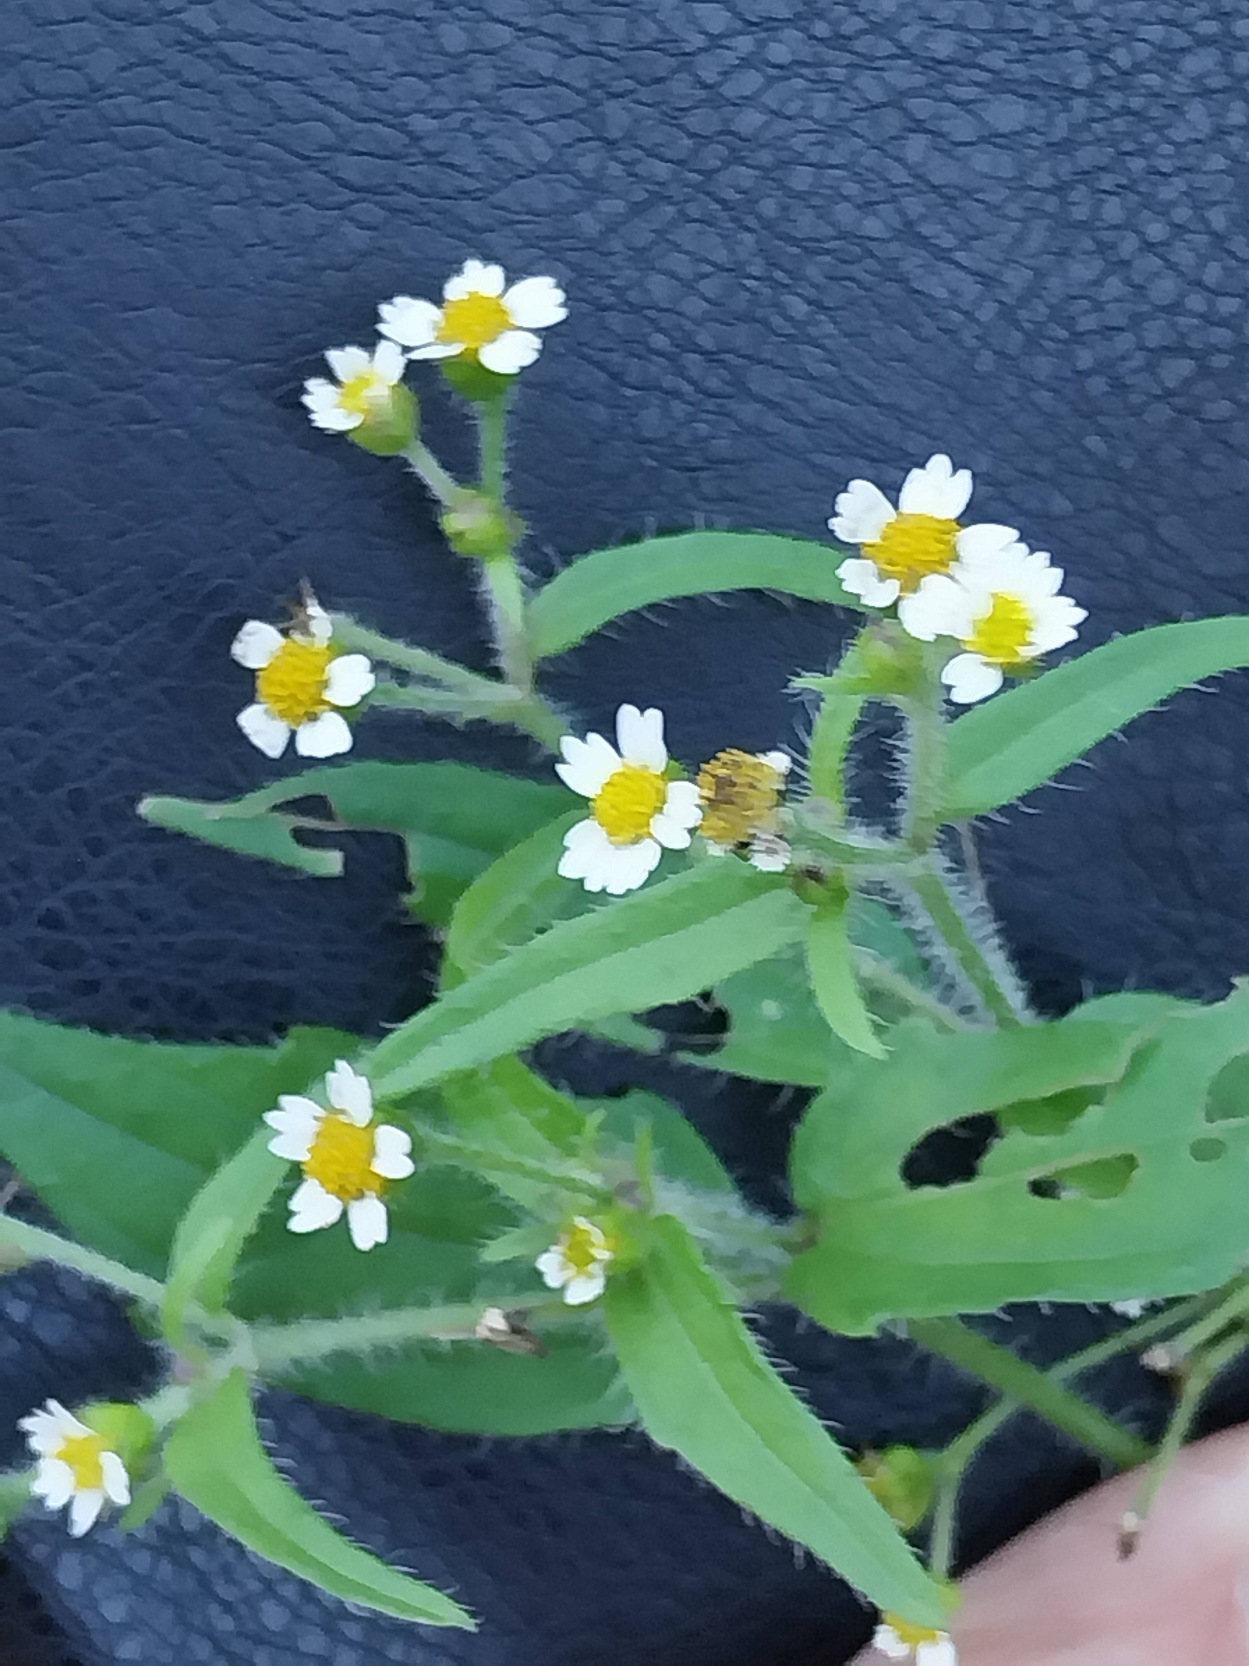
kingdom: Plantae
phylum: Tracheophyta
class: Magnoliopsida
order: Asterales
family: Asteraceae
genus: Galinsoga
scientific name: Galinsoga quadriradiata
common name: Kirtel-kortstråle
